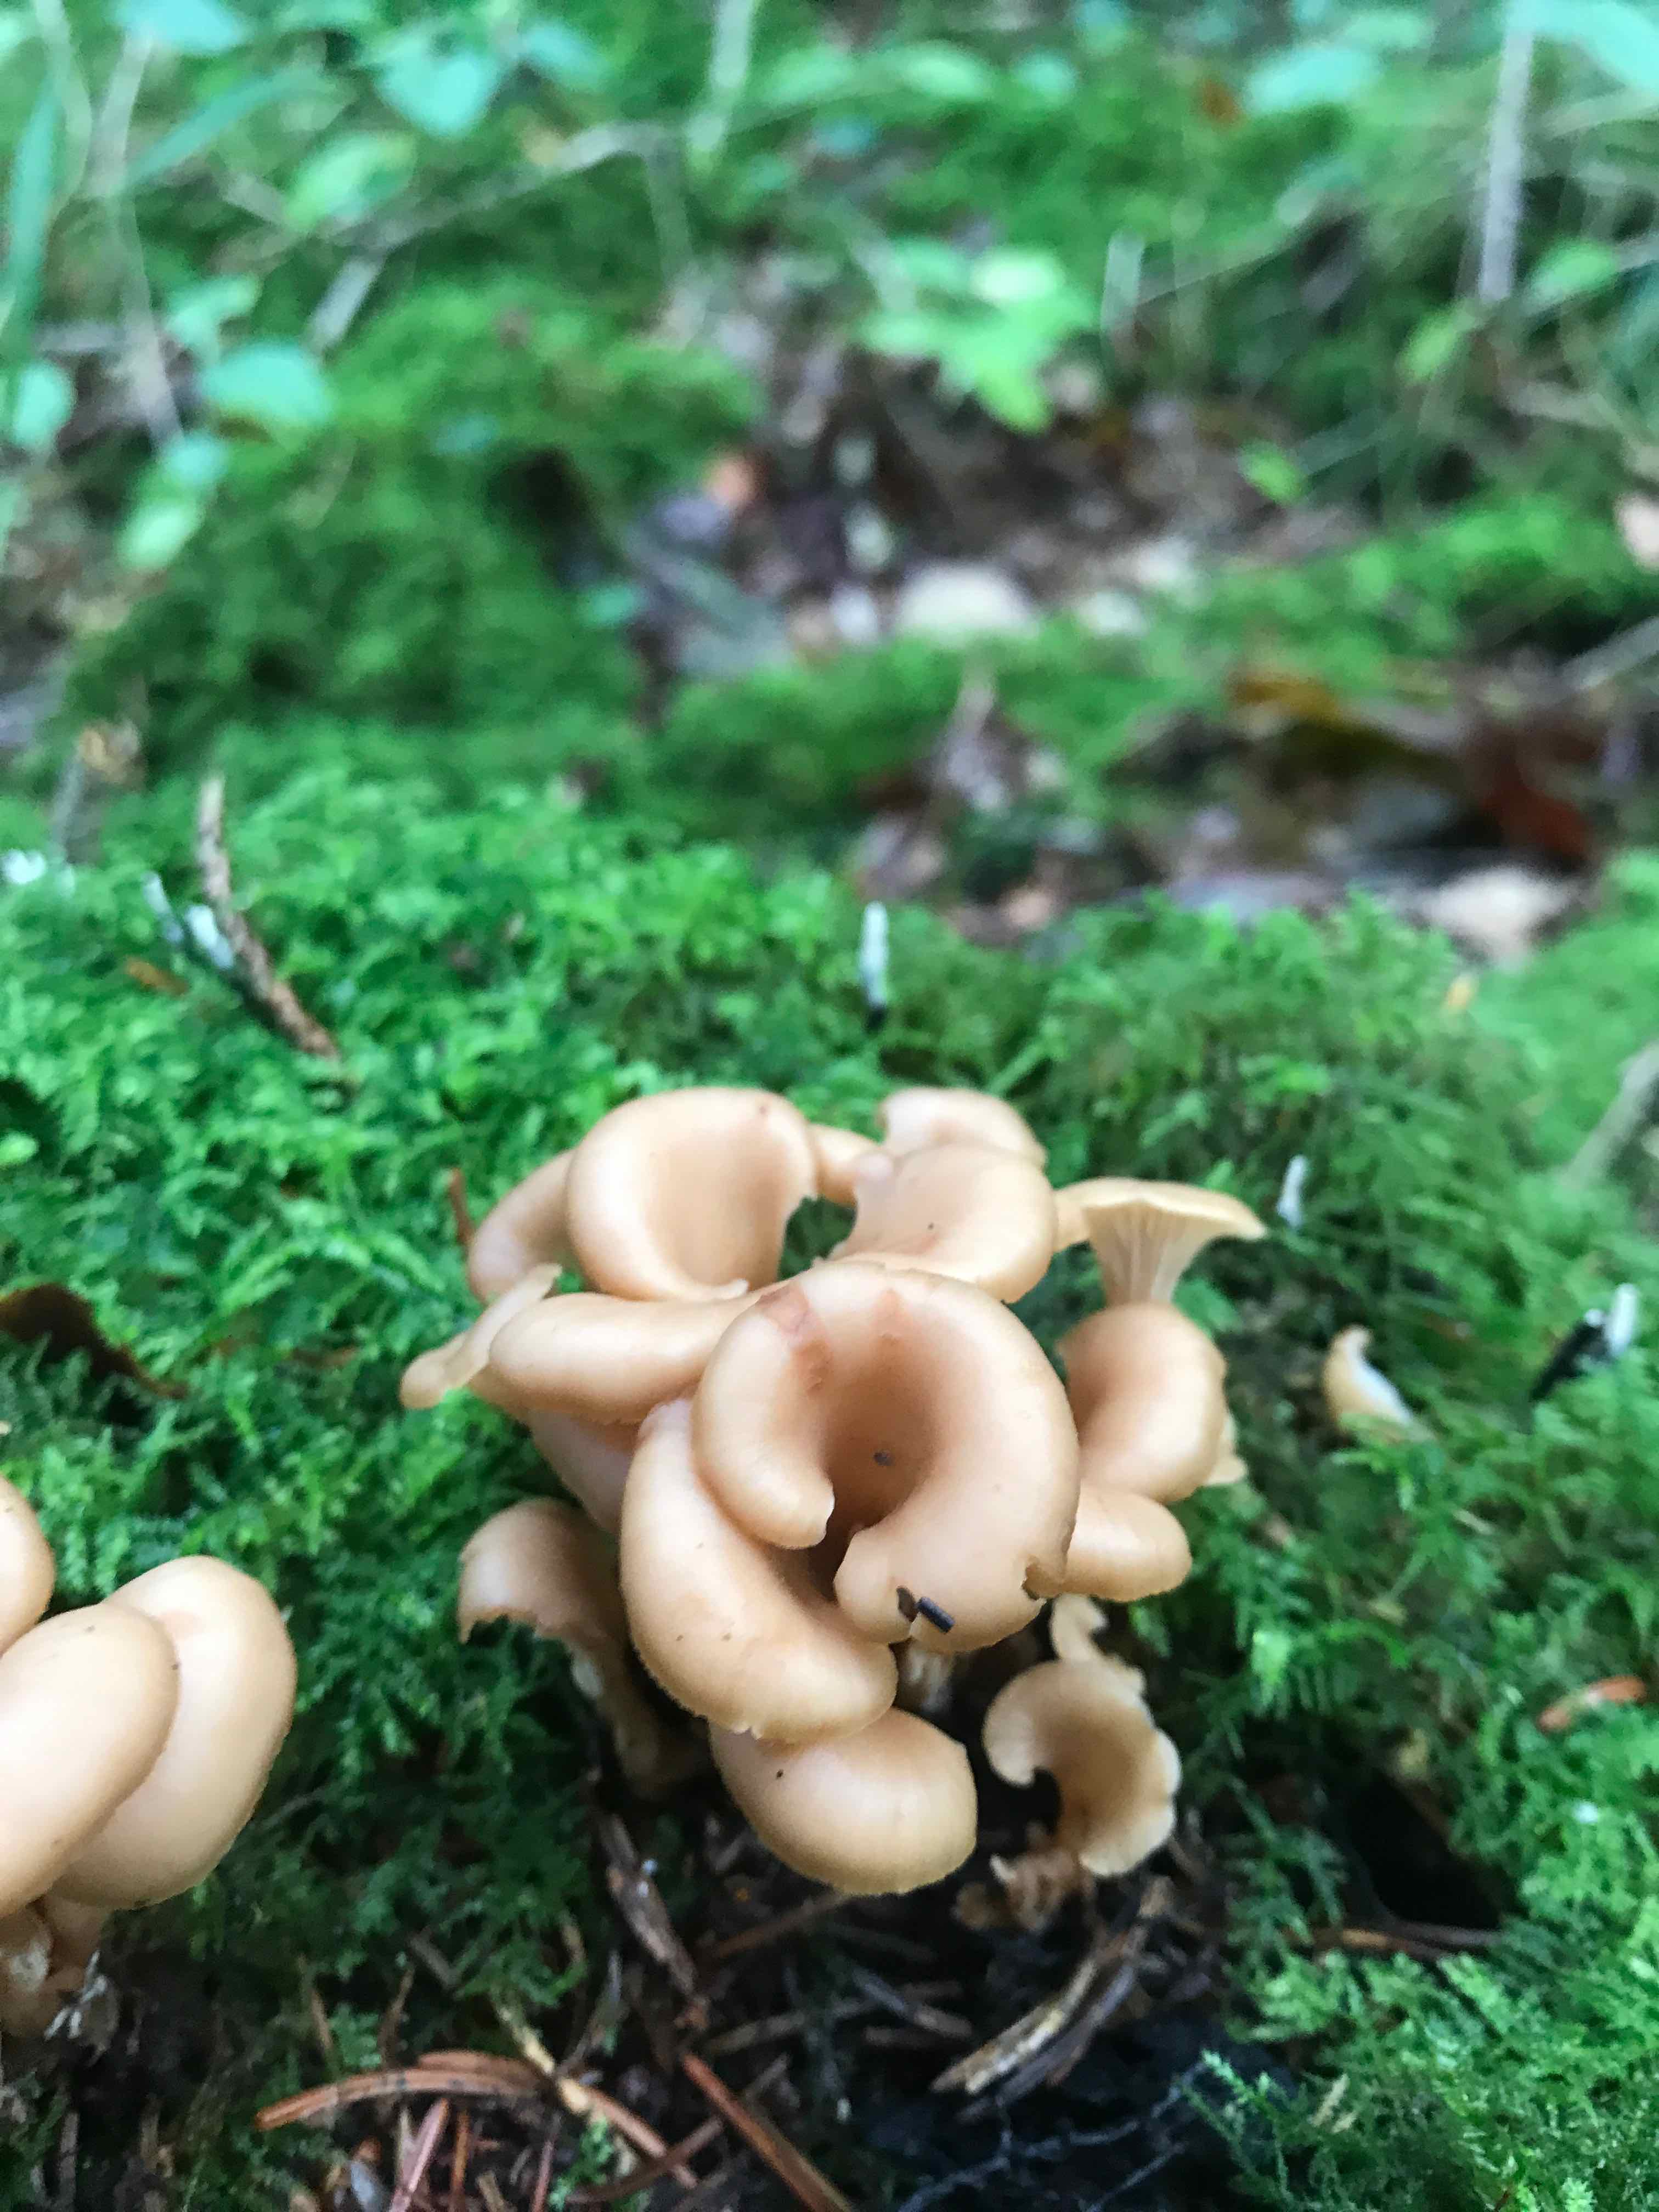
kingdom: Fungi
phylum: Basidiomycota
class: Agaricomycetes
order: Russulales
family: Auriscalpiaceae
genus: Lentinellus
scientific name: Lentinellus cochleatus
